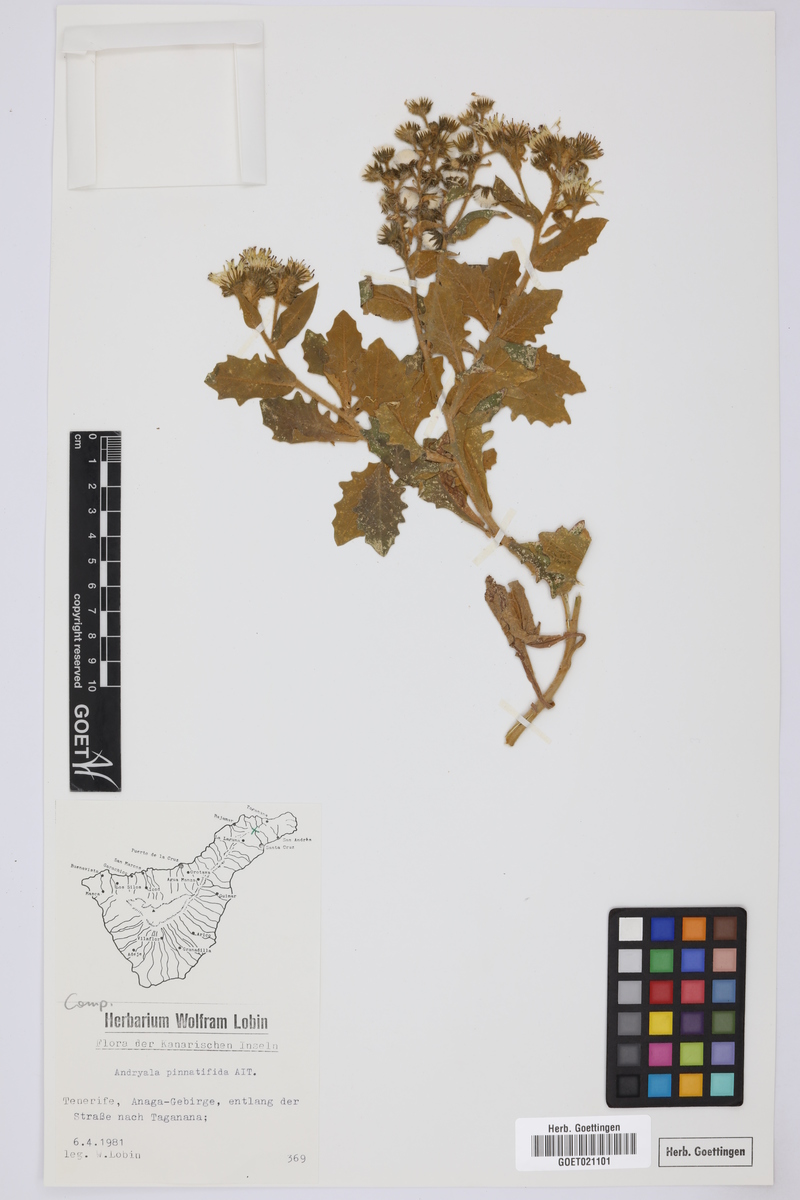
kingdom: Plantae
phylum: Tracheophyta
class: Magnoliopsida
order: Asterales
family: Asteraceae
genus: Andryala
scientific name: Andryala pinnatifida
